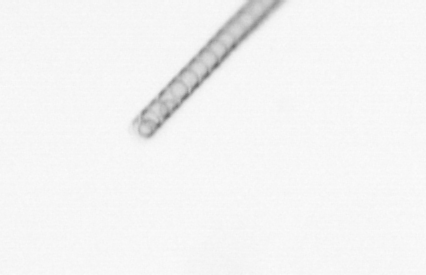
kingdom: Chromista
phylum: Ochrophyta
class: Bacillariophyceae
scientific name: Bacillariophyceae
